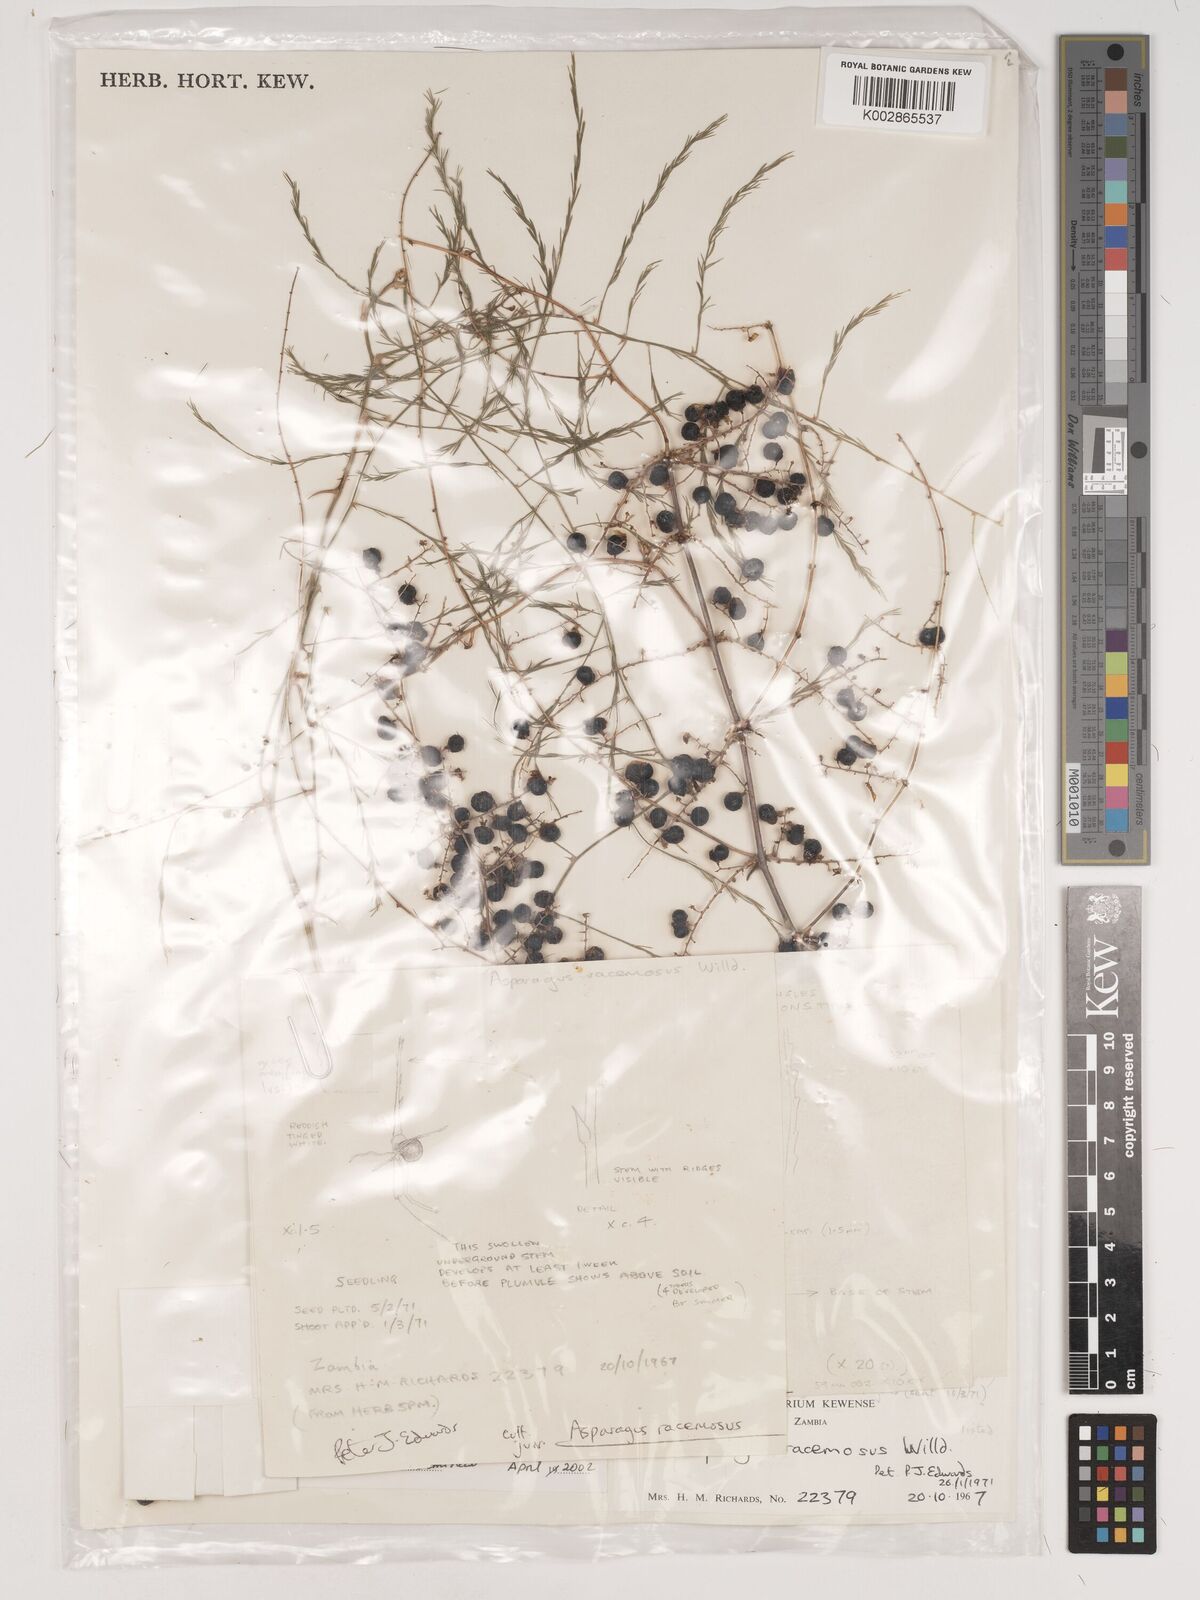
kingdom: Plantae
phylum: Tracheophyta
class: Liliopsida
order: Asparagales
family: Asparagaceae
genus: Asparagus
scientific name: Asparagus nelsii
